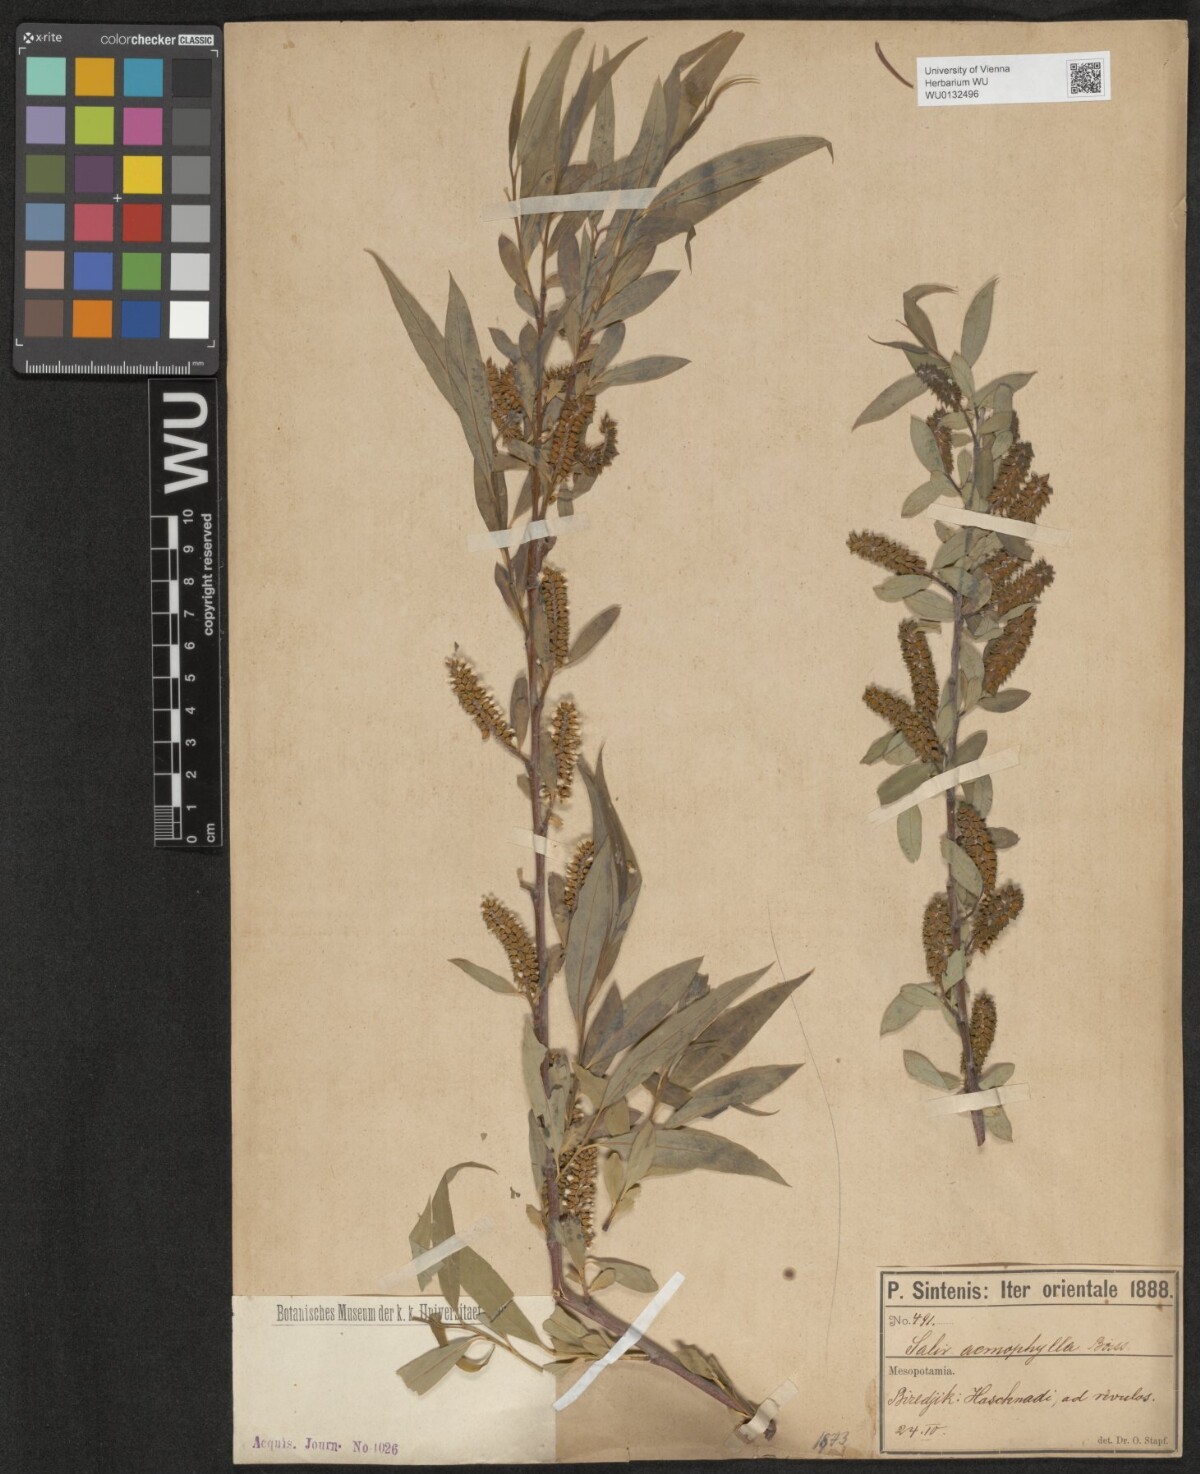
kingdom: Plantae
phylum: Tracheophyta
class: Magnoliopsida
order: Malpighiales
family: Salicaceae
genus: Salix
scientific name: Salix acmophylla
